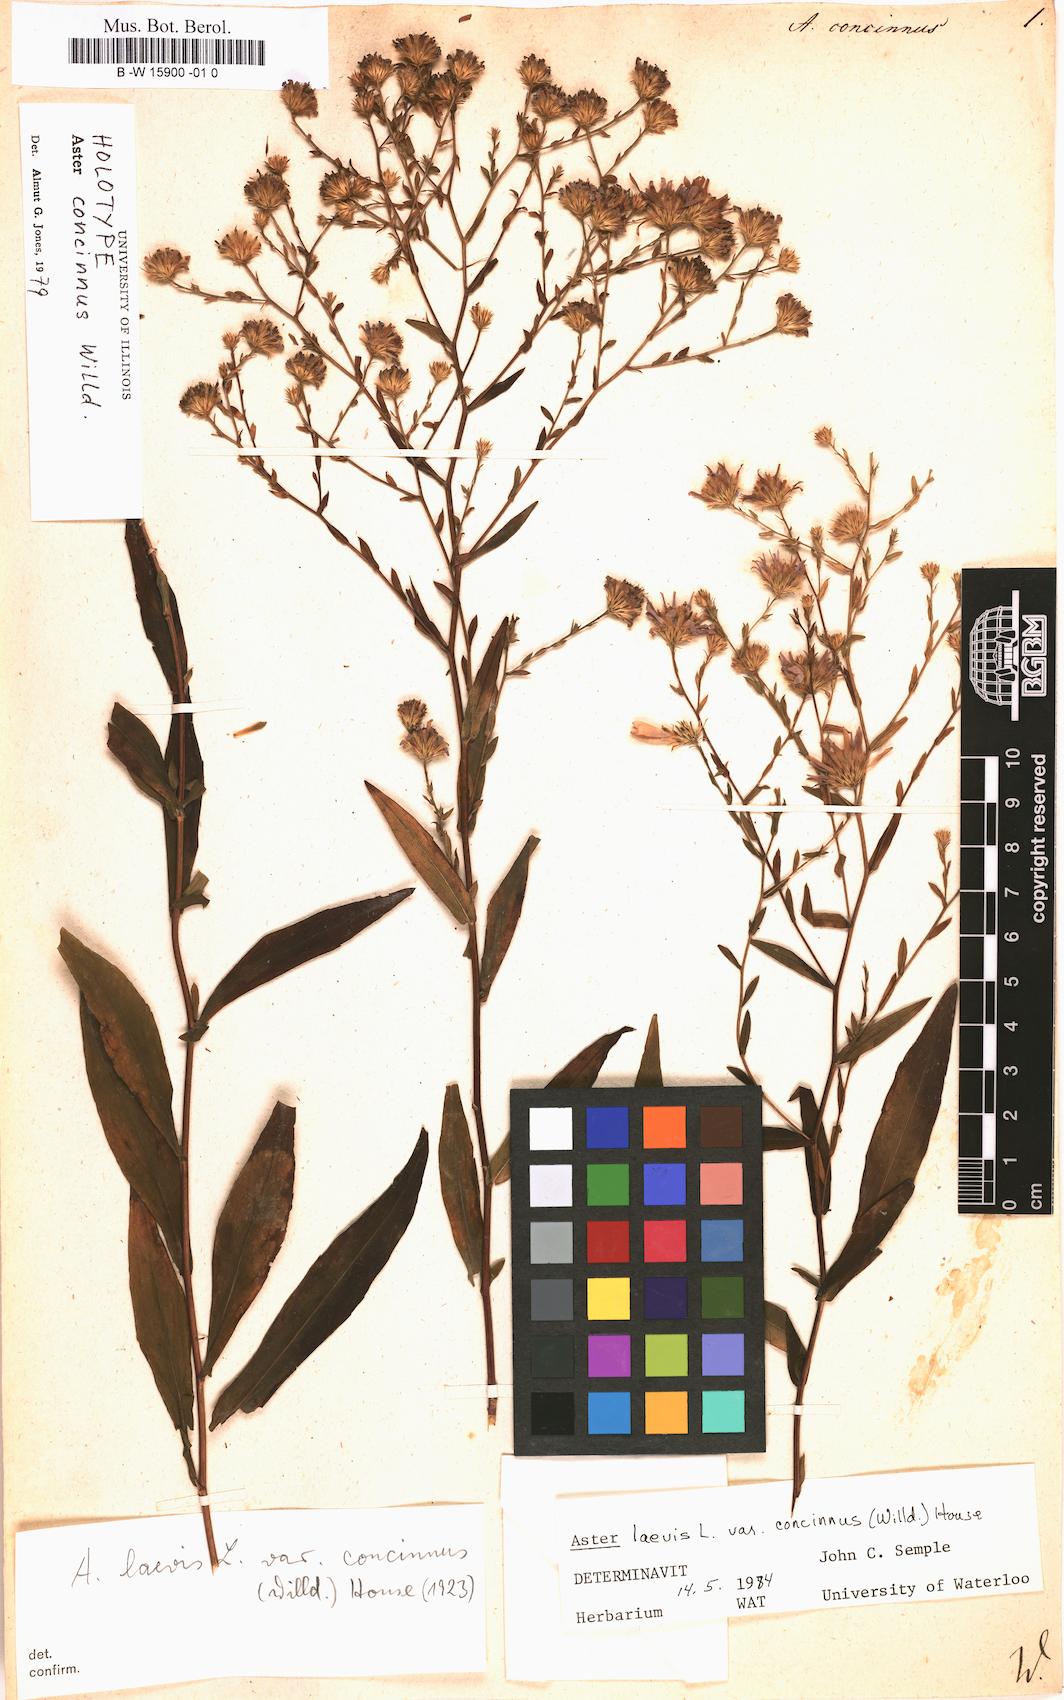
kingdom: Plantae
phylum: Tracheophyta
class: Magnoliopsida
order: Asterales
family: Asteraceae
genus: Symphyotrichum
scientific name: Symphyotrichum laeve
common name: Glaucous aster
